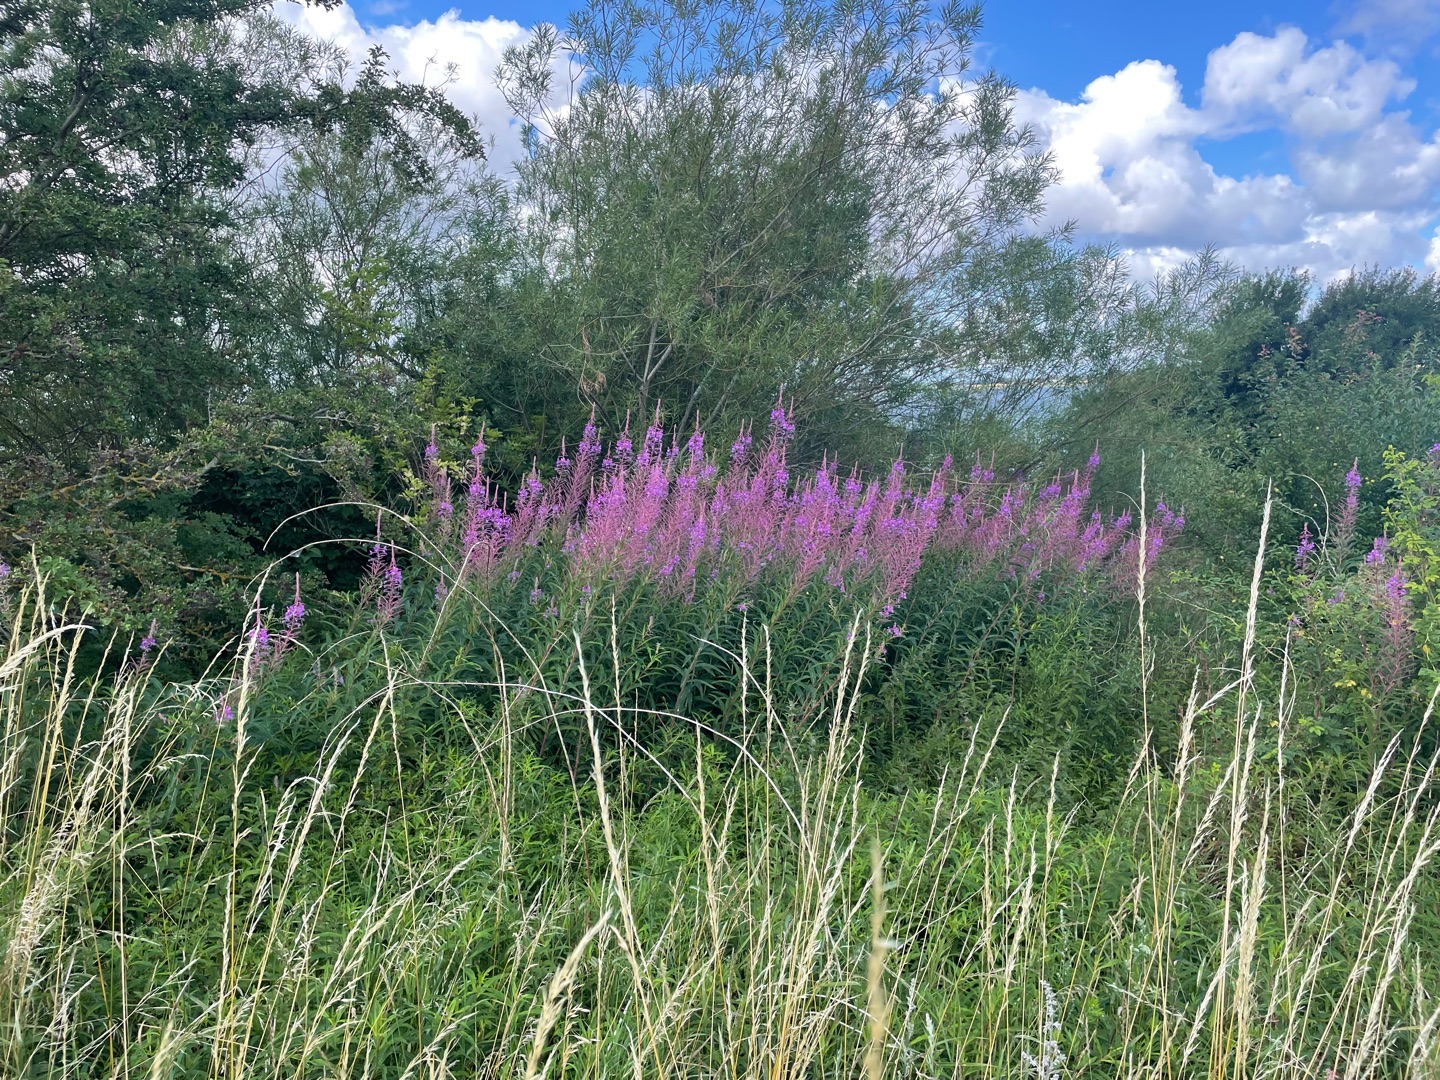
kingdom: Plantae
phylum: Tracheophyta
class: Magnoliopsida
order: Myrtales
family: Onagraceae
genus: Chamaenerion
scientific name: Chamaenerion angustifolium
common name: Gederams
